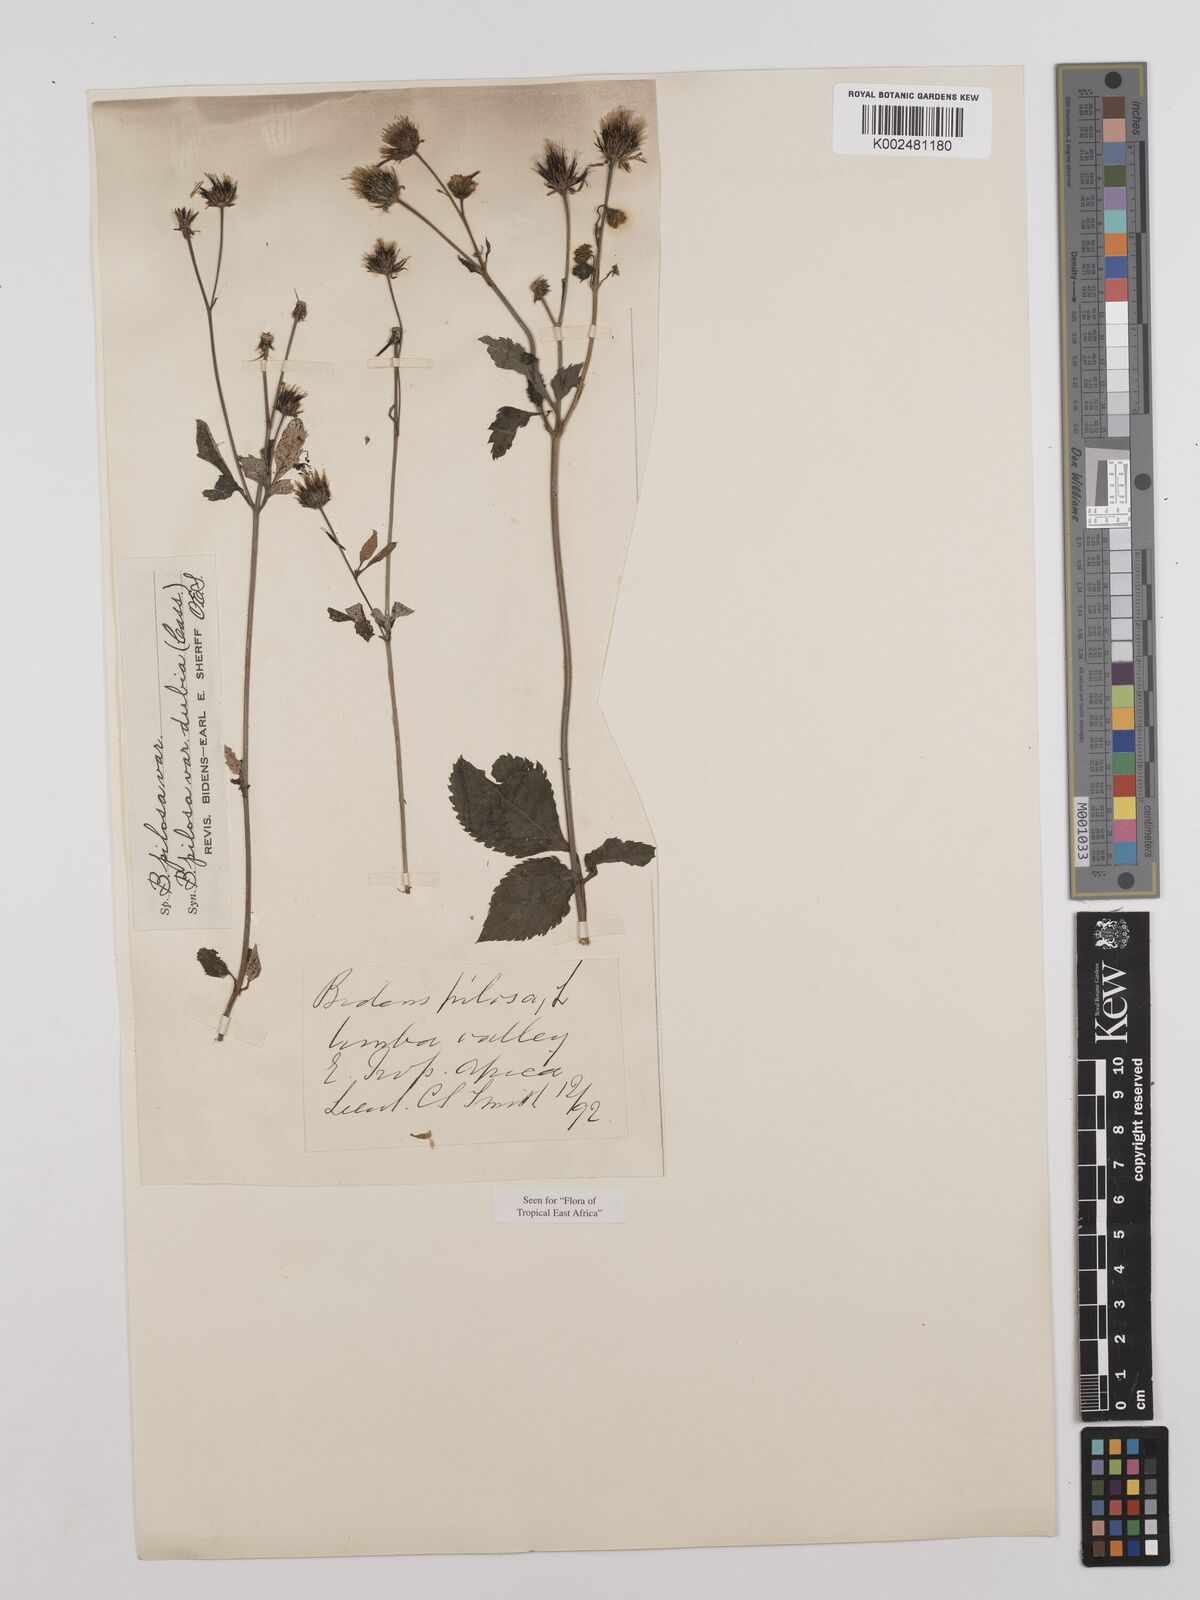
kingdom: Plantae
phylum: Tracheophyta
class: Magnoliopsida
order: Asterales
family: Asteraceae
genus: Bidens
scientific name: Bidens pilosa
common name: Black-jack
